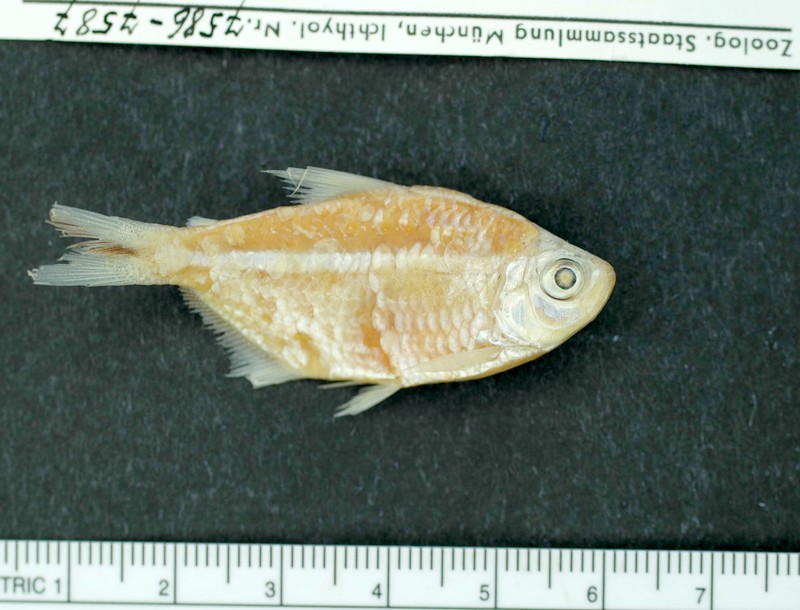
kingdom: Animalia
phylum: Chordata
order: Characiformes
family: Characidae
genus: Moenkhausia
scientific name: Moenkhausia costae
